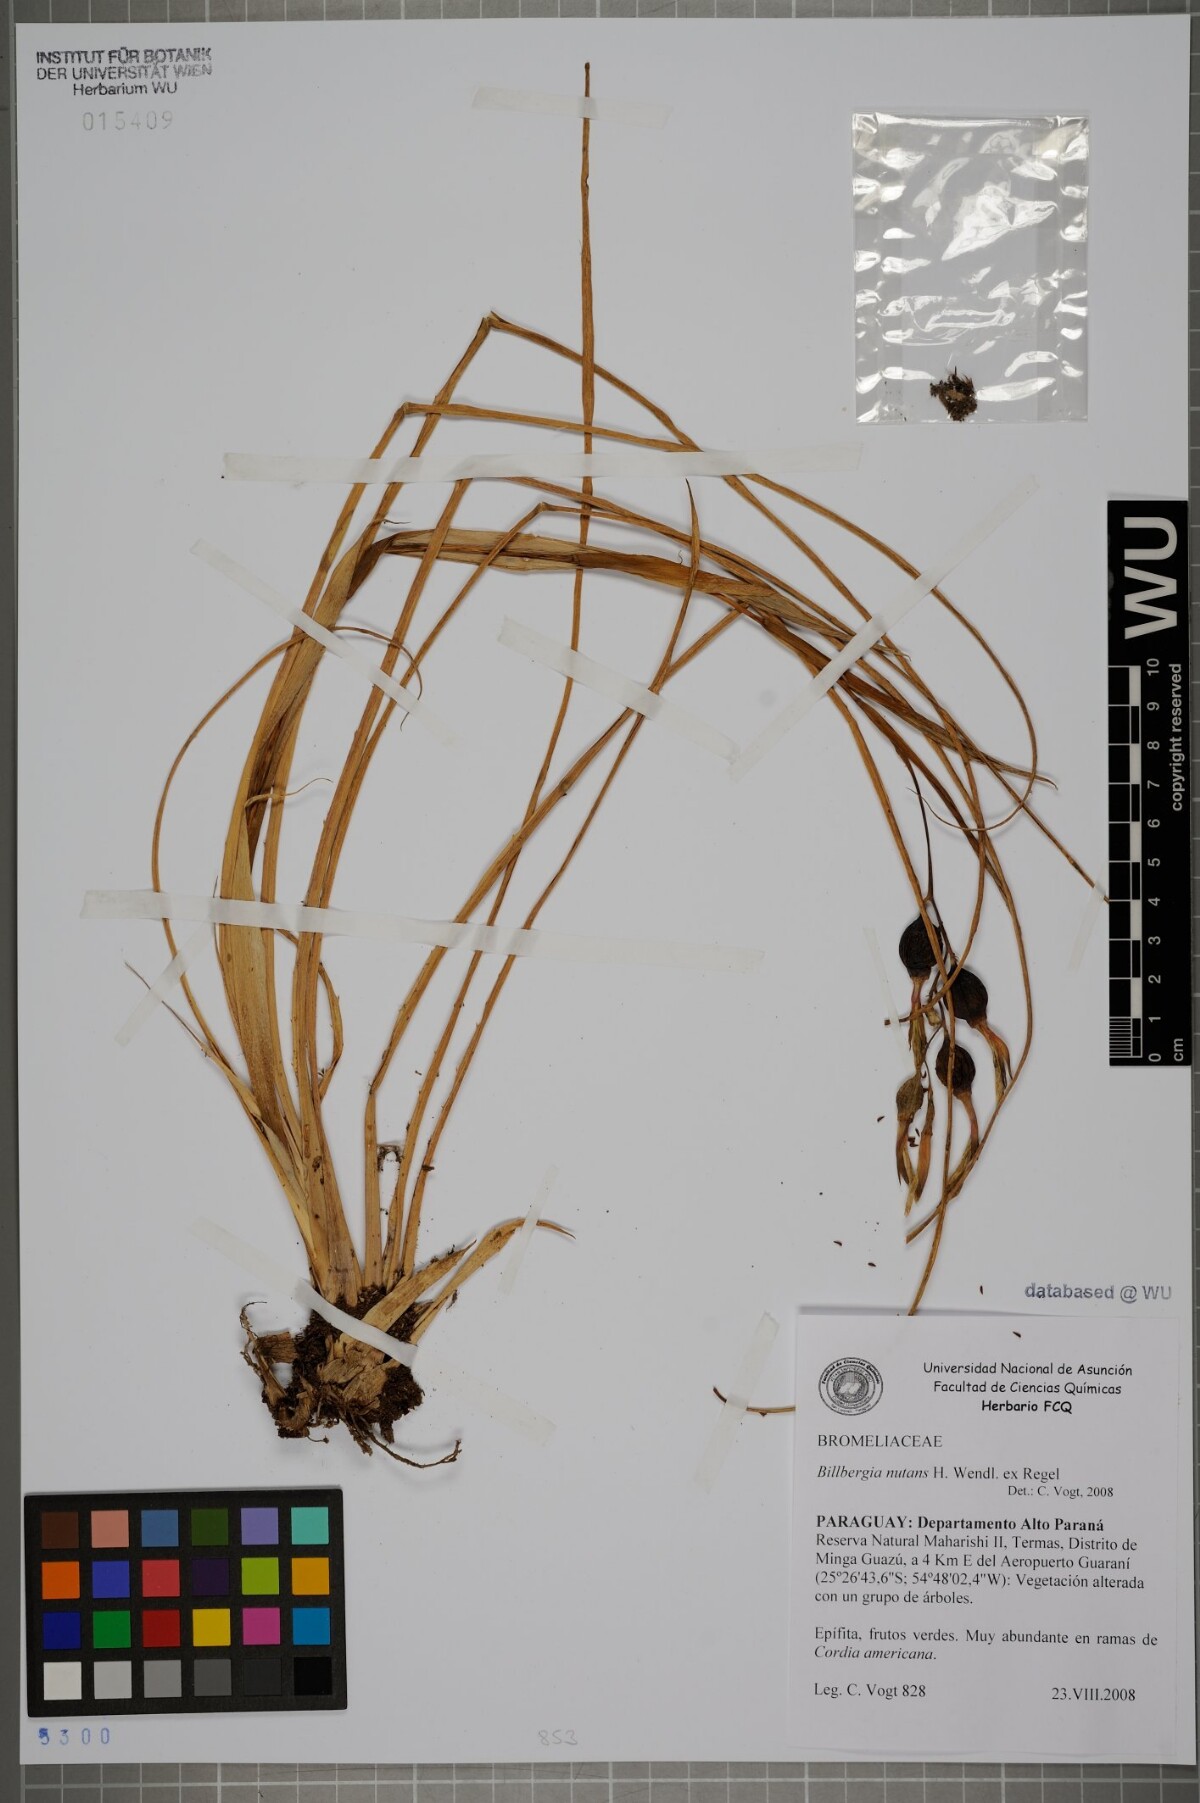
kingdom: Plantae
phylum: Tracheophyta
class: Liliopsida
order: Poales
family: Bromeliaceae
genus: Billbergia
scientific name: Billbergia nutans
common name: Friendship-plant
